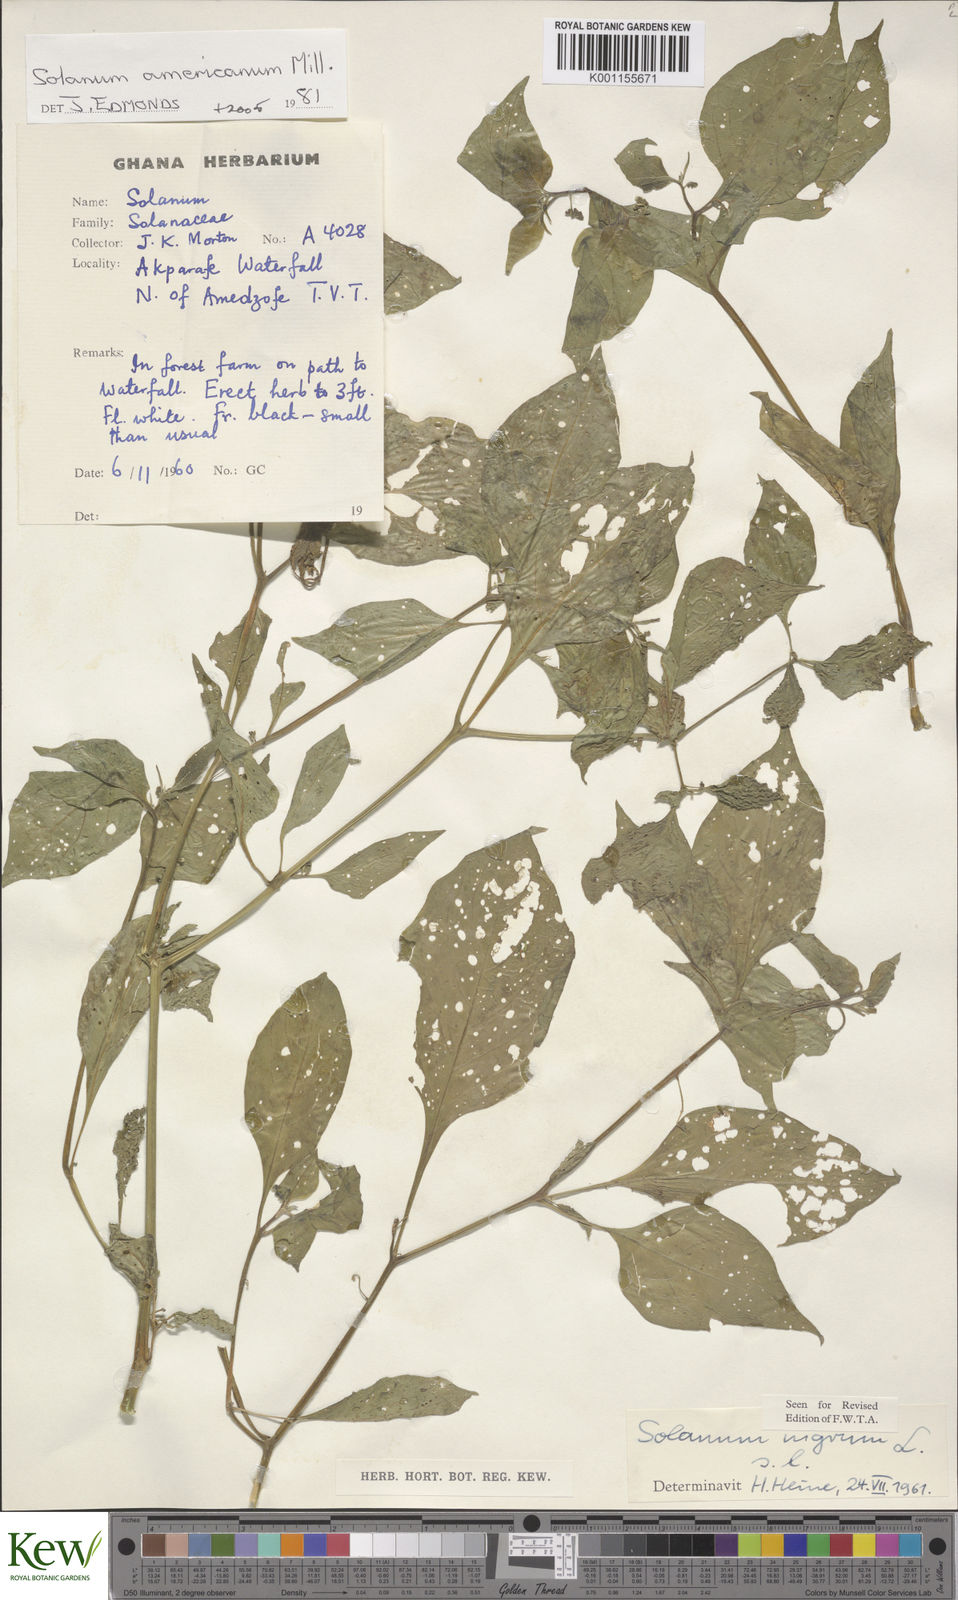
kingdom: Plantae
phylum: Tracheophyta
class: Magnoliopsida
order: Solanales
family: Solanaceae
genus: Solanum
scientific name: Solanum scabrum
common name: Garden-huckleberry
